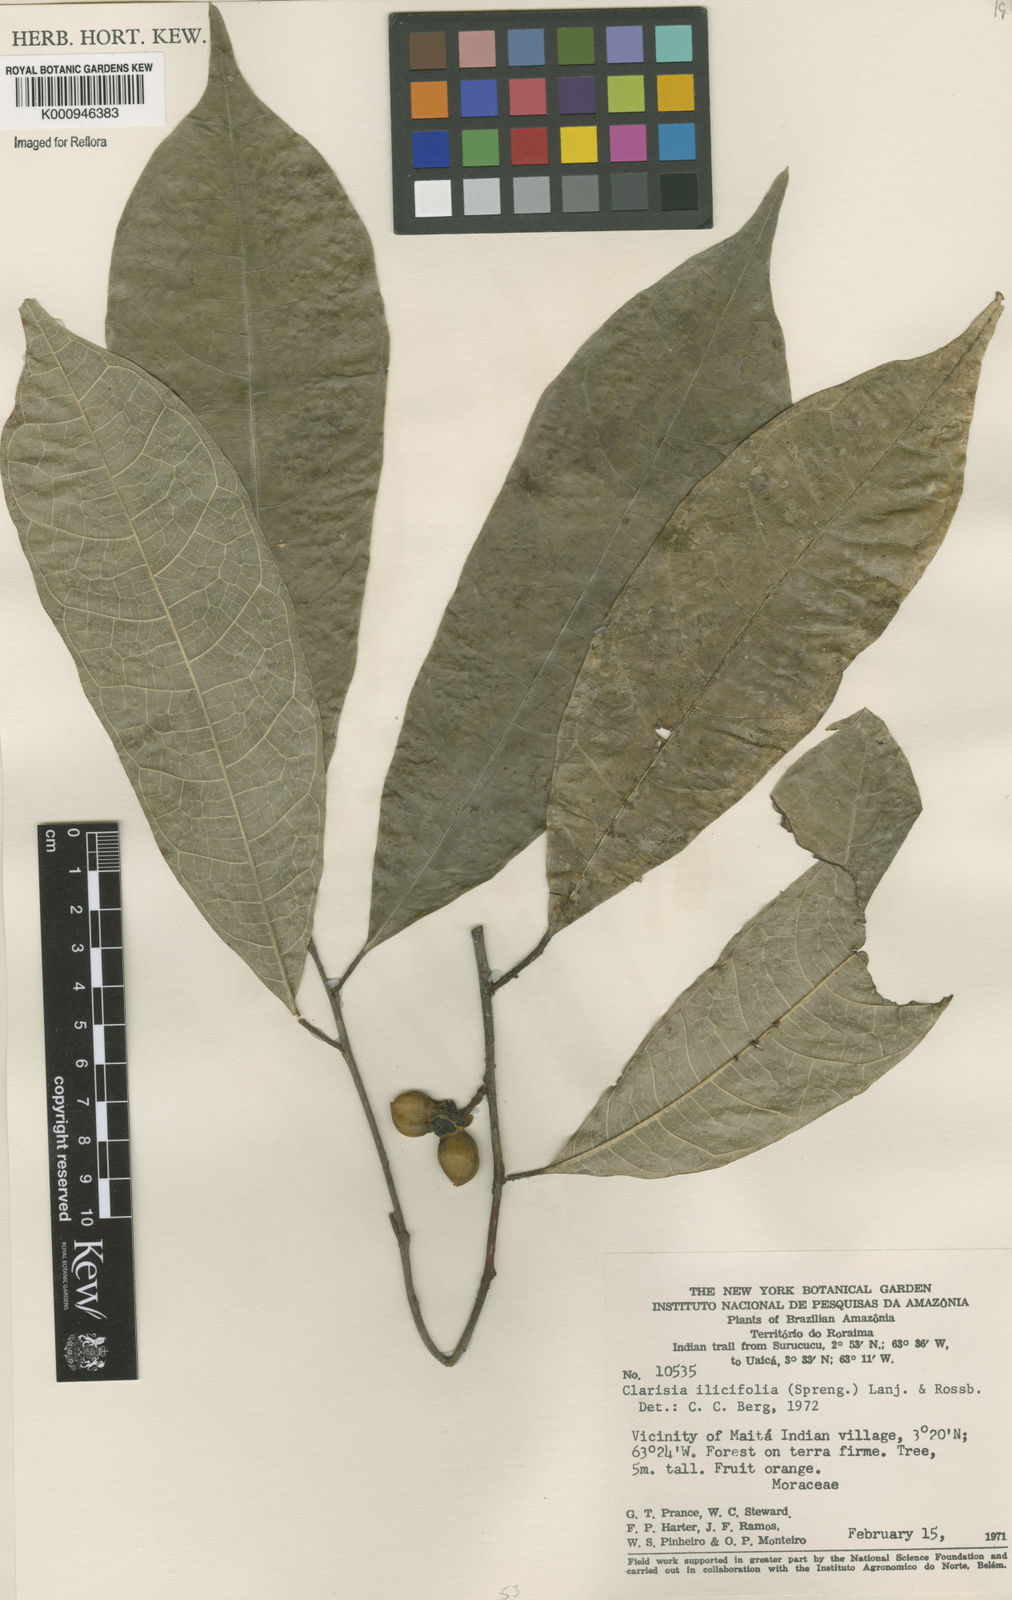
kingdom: Plantae
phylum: Tracheophyta
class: Magnoliopsida
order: Rosales
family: Moraceae
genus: Clarisia
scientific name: Clarisia ilicifolia
